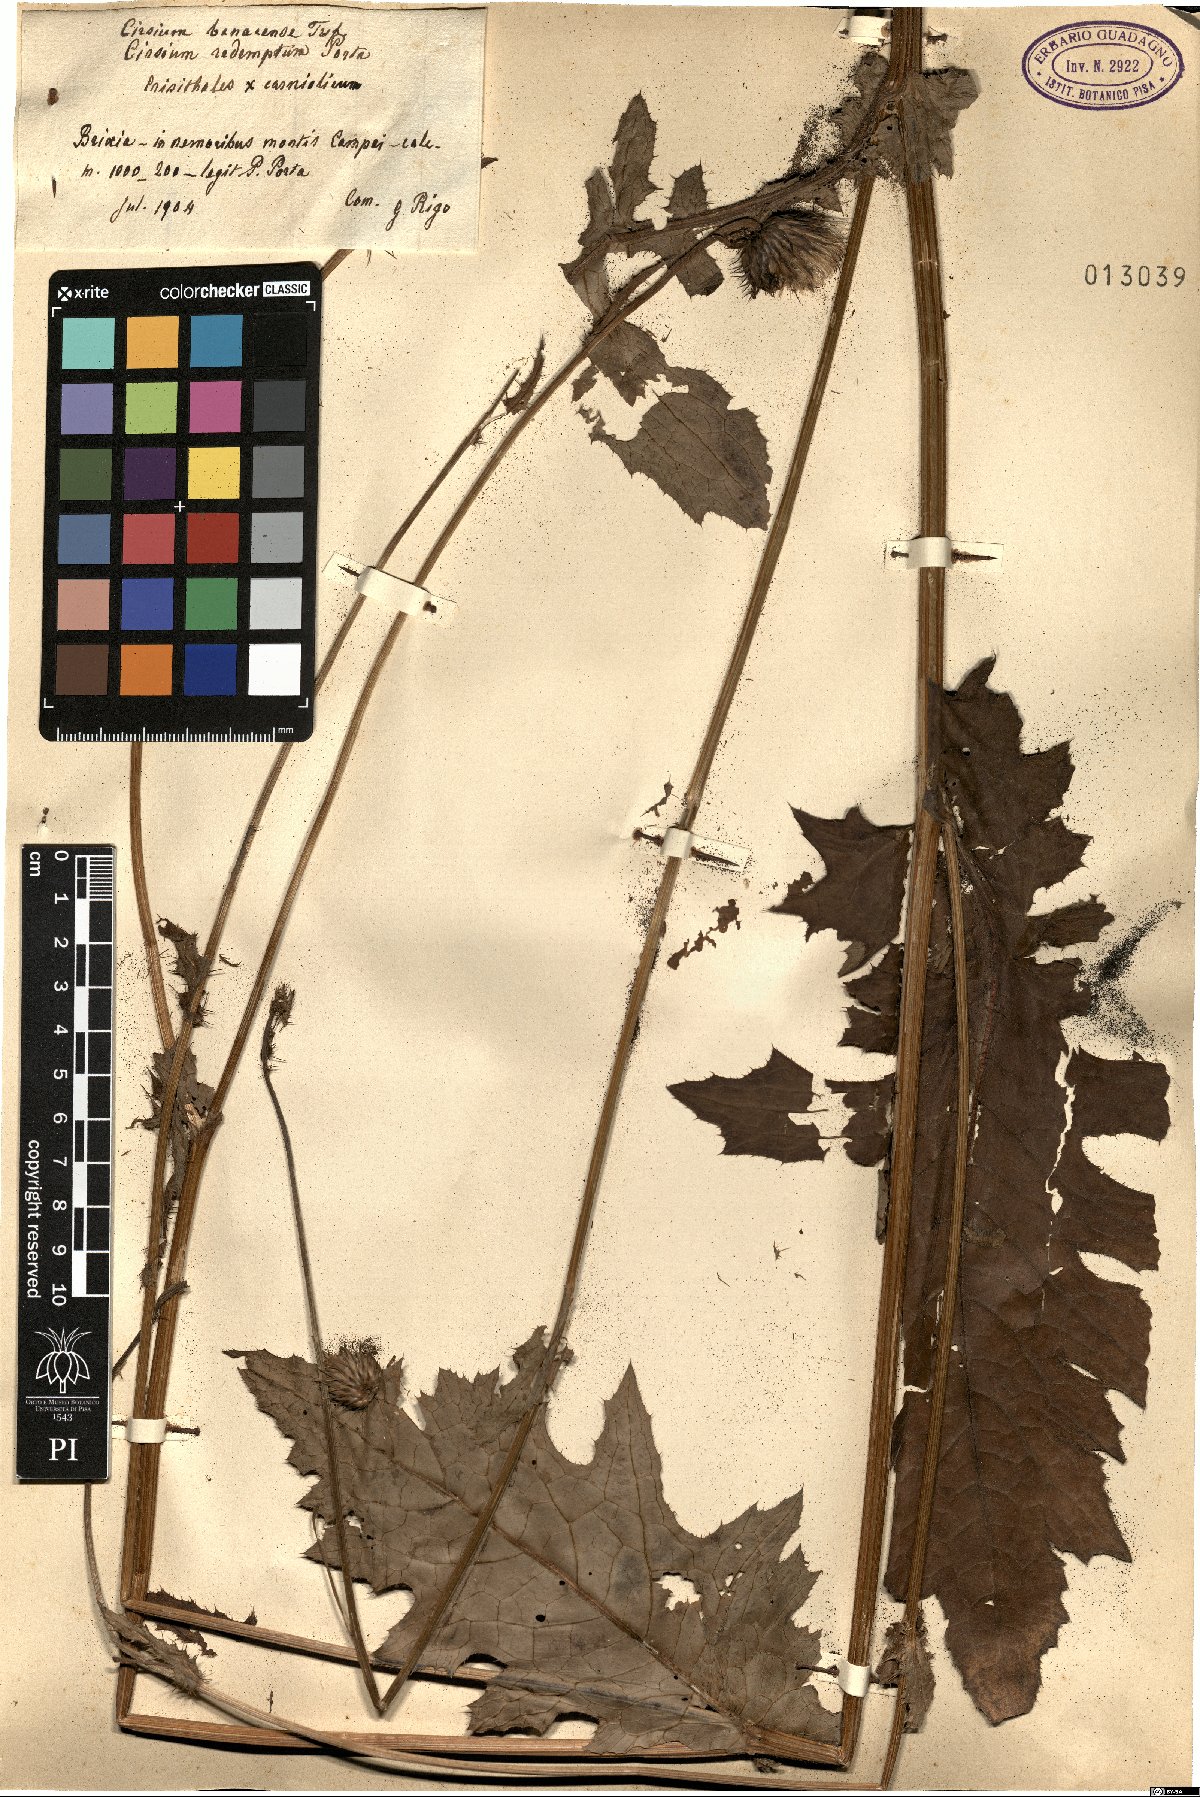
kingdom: Plantae
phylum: Tracheophyta
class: Magnoliopsida
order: Asterales
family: Asteraceae
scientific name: Asteraceae
